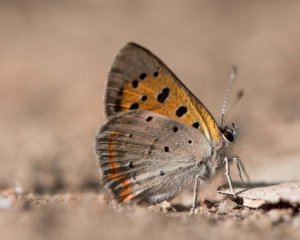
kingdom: Animalia
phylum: Arthropoda
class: Insecta
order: Lepidoptera
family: Lycaenidae
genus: Lycaena
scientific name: Lycaena phlaeas
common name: American Copper
